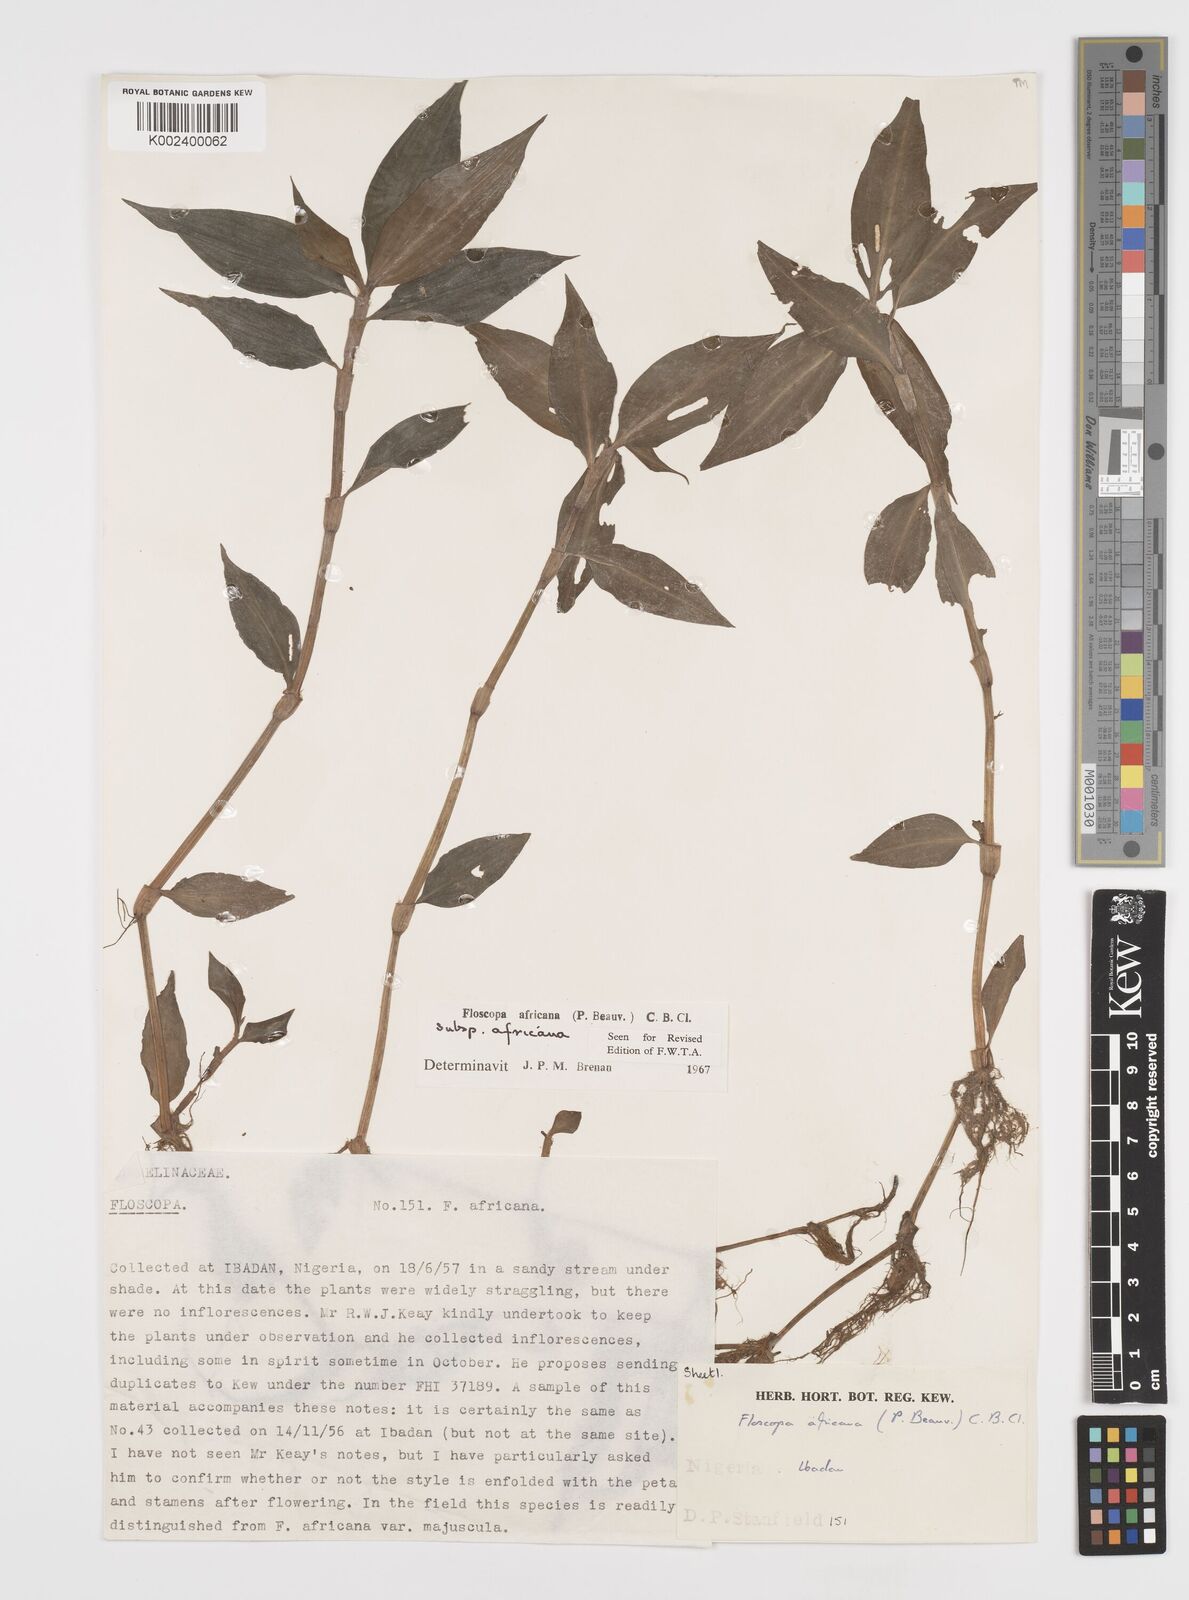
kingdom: Plantae
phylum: Tracheophyta
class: Liliopsida
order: Commelinales
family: Commelinaceae
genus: Floscopa
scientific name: Floscopa africana
